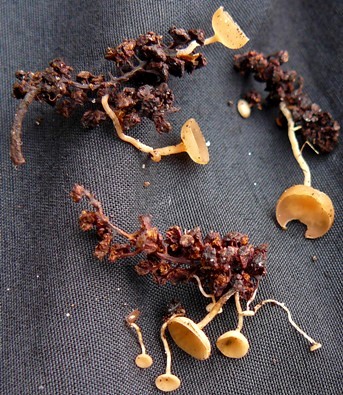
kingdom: Fungi
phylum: Ascomycota
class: Leotiomycetes
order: Helotiales
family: Sclerotiniaceae
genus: Ciboria
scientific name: Ciboria amentacea
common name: ellerakle-knoldskive
